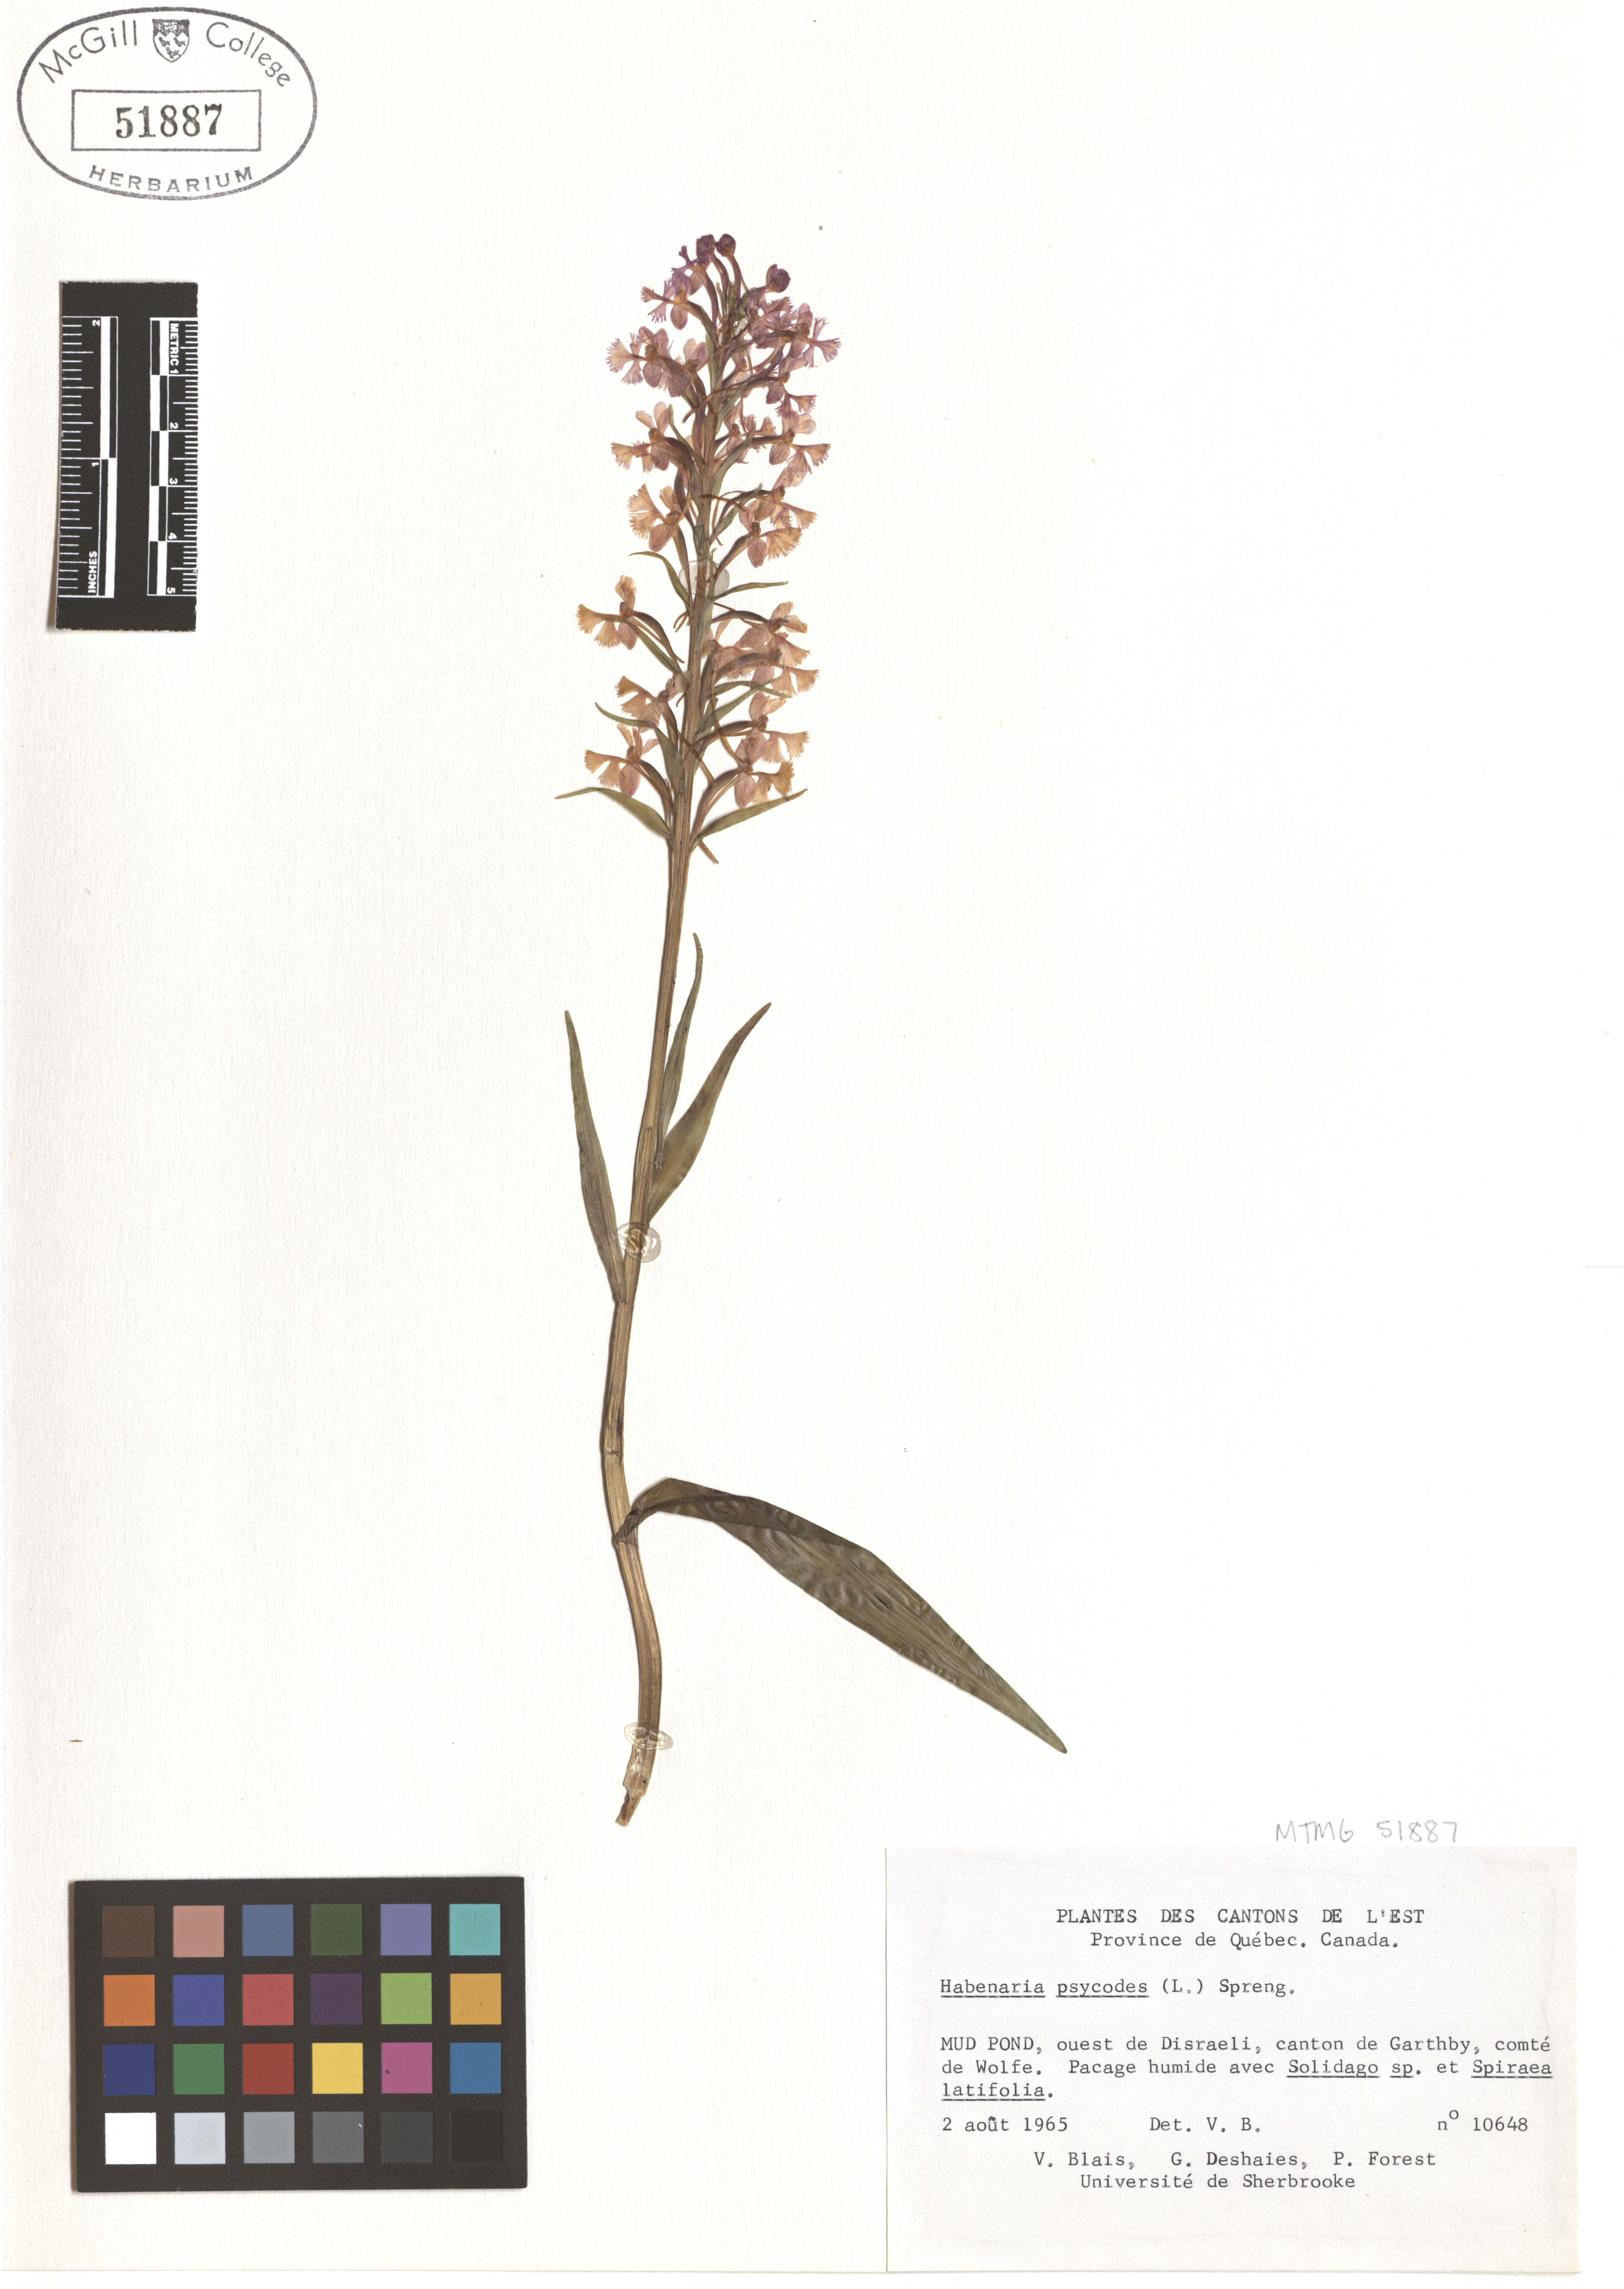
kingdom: Plantae
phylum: Tracheophyta
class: Liliopsida
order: Asparagales
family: Orchidaceae
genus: Platanthera
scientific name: Platanthera psycodes
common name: Lesser purple fringed orchid
